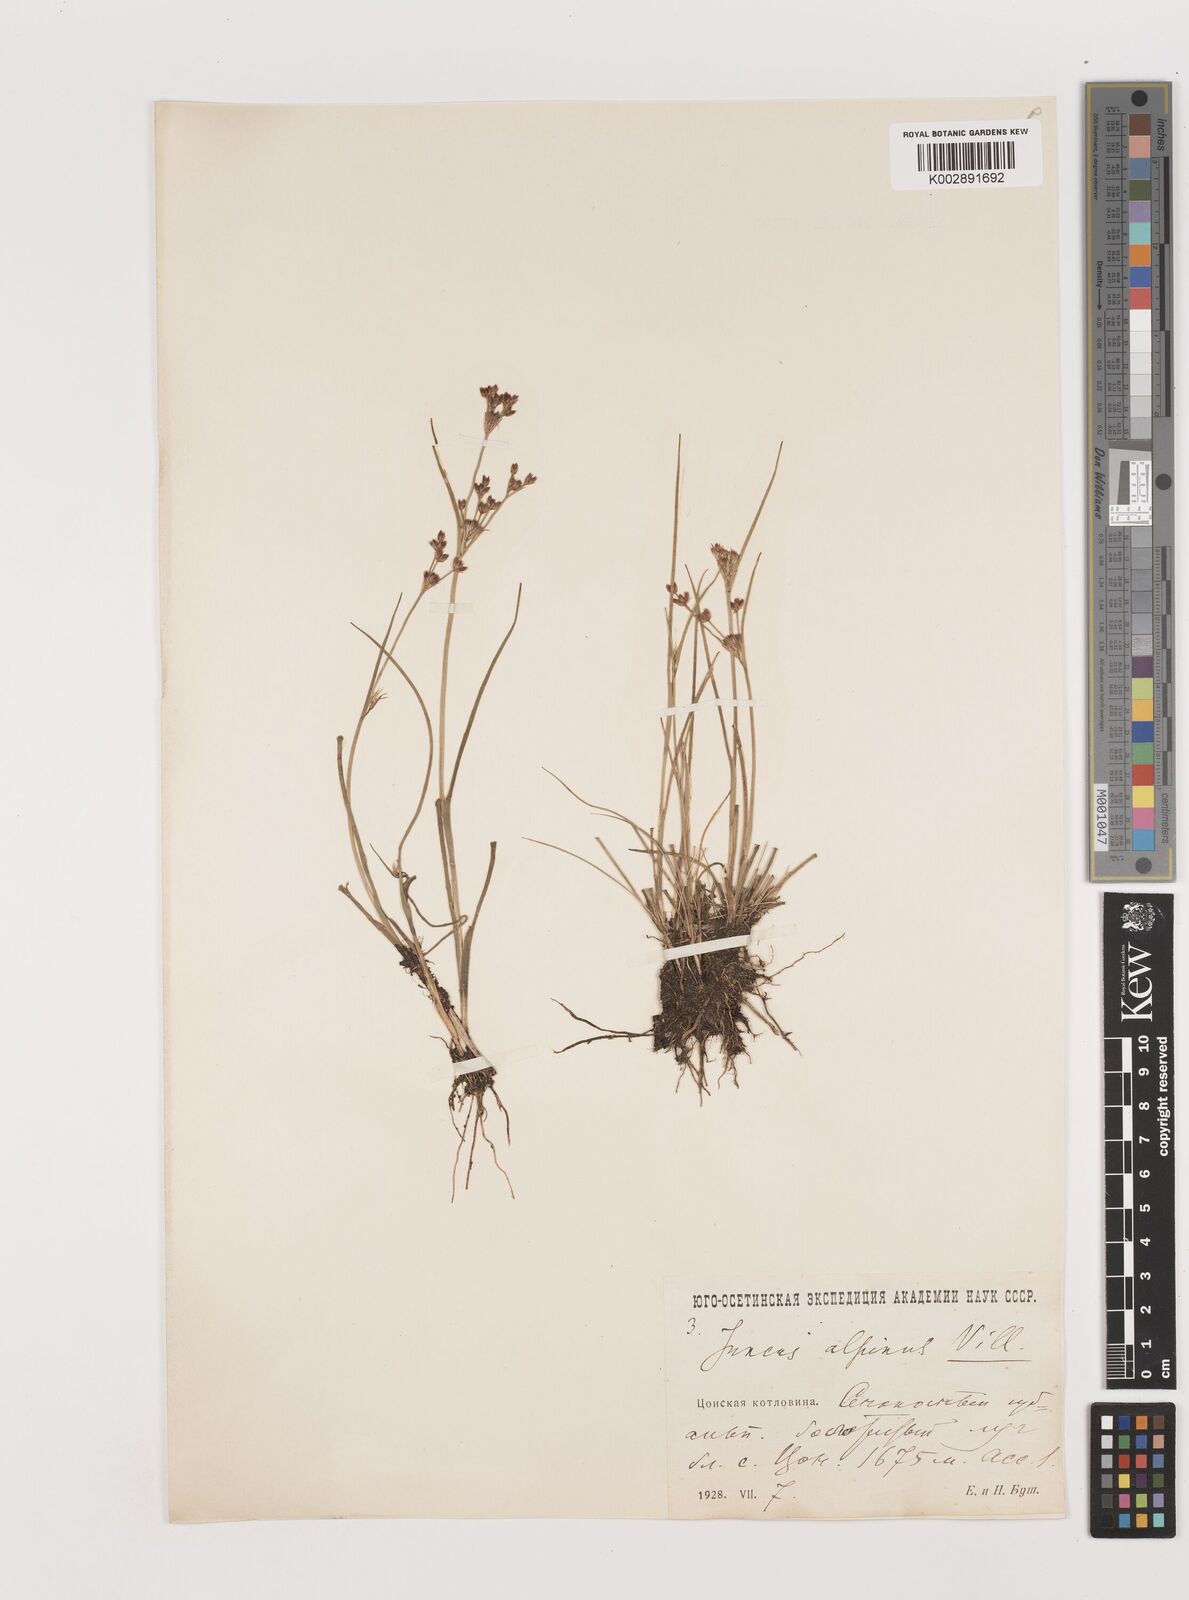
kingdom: Plantae
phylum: Tracheophyta
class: Liliopsida
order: Poales
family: Juncaceae
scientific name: Juncaceae
